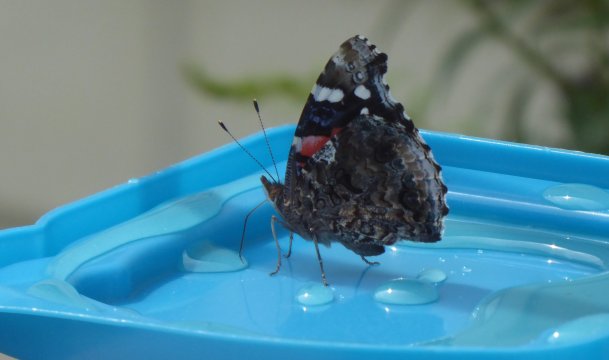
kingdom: Animalia
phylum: Arthropoda
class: Insecta
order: Lepidoptera
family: Nymphalidae
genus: Vanessa
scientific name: Vanessa atalanta
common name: Red Admiral
